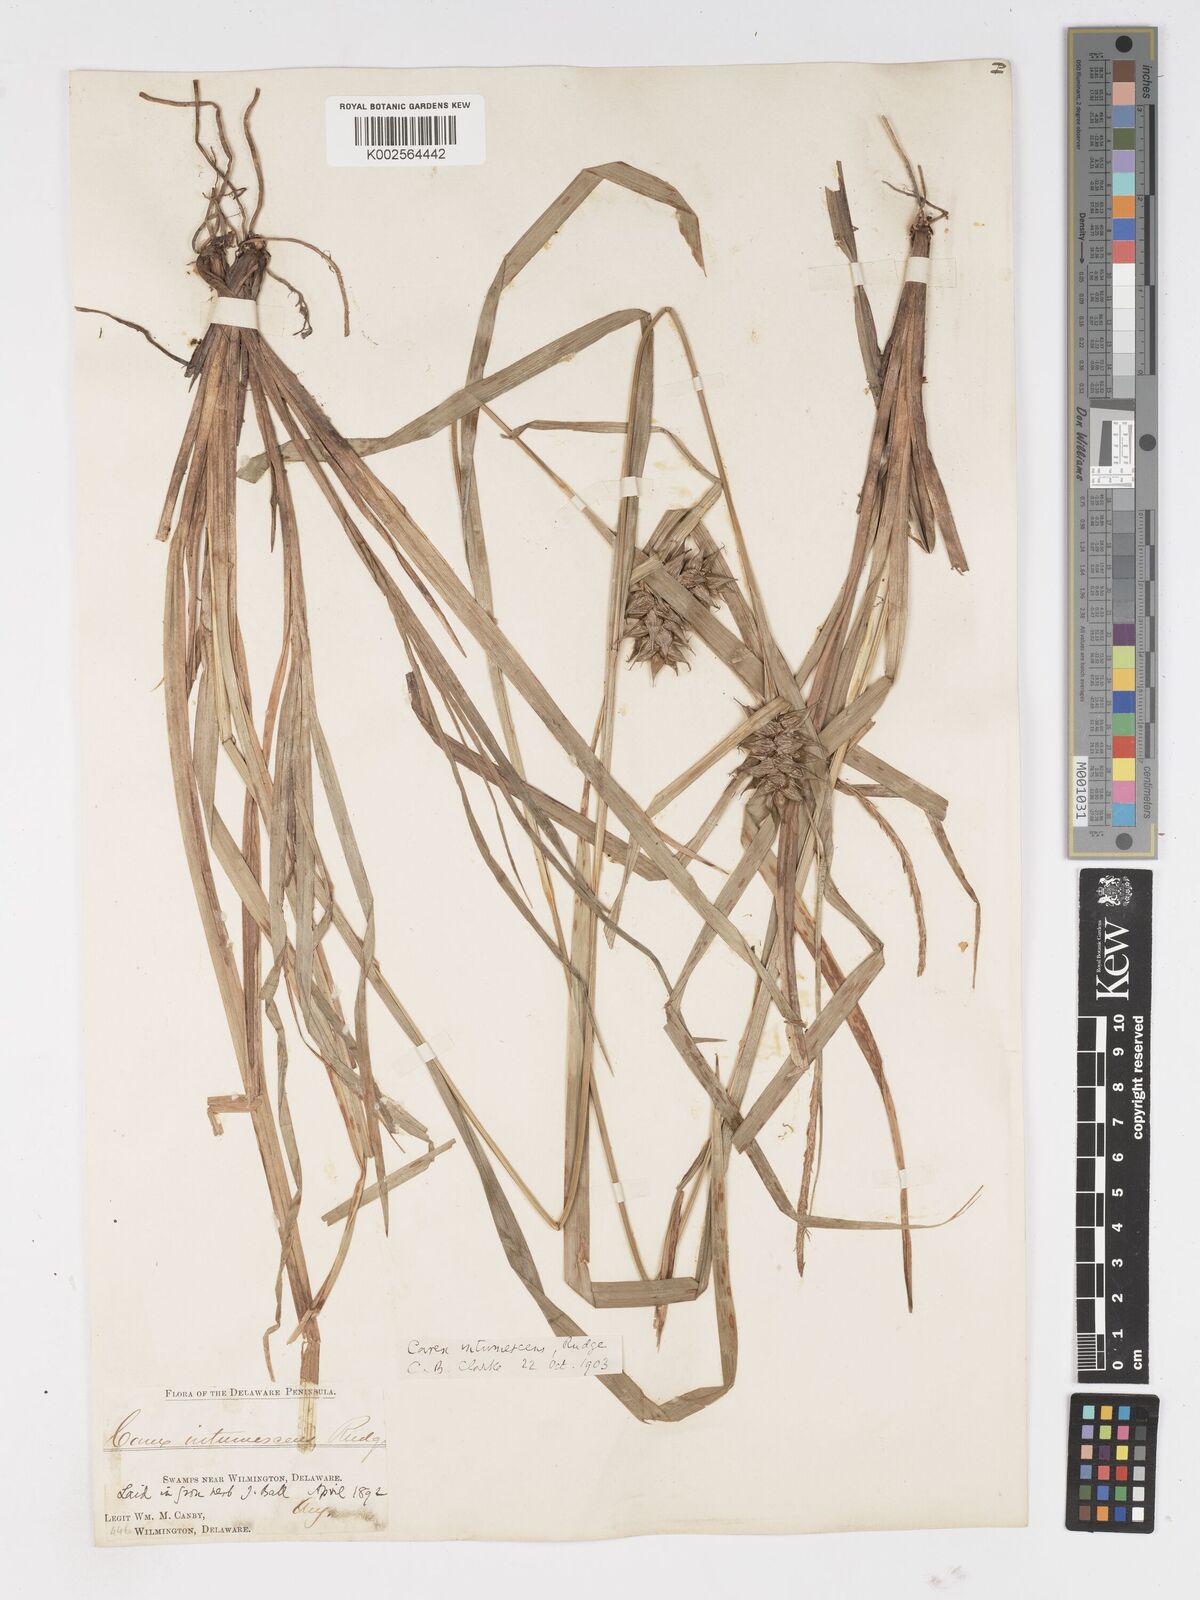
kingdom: Plantae
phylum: Tracheophyta
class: Liliopsida
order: Poales
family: Cyperaceae
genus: Carex
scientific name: Carex intumescens
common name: Greater bladder sedge
